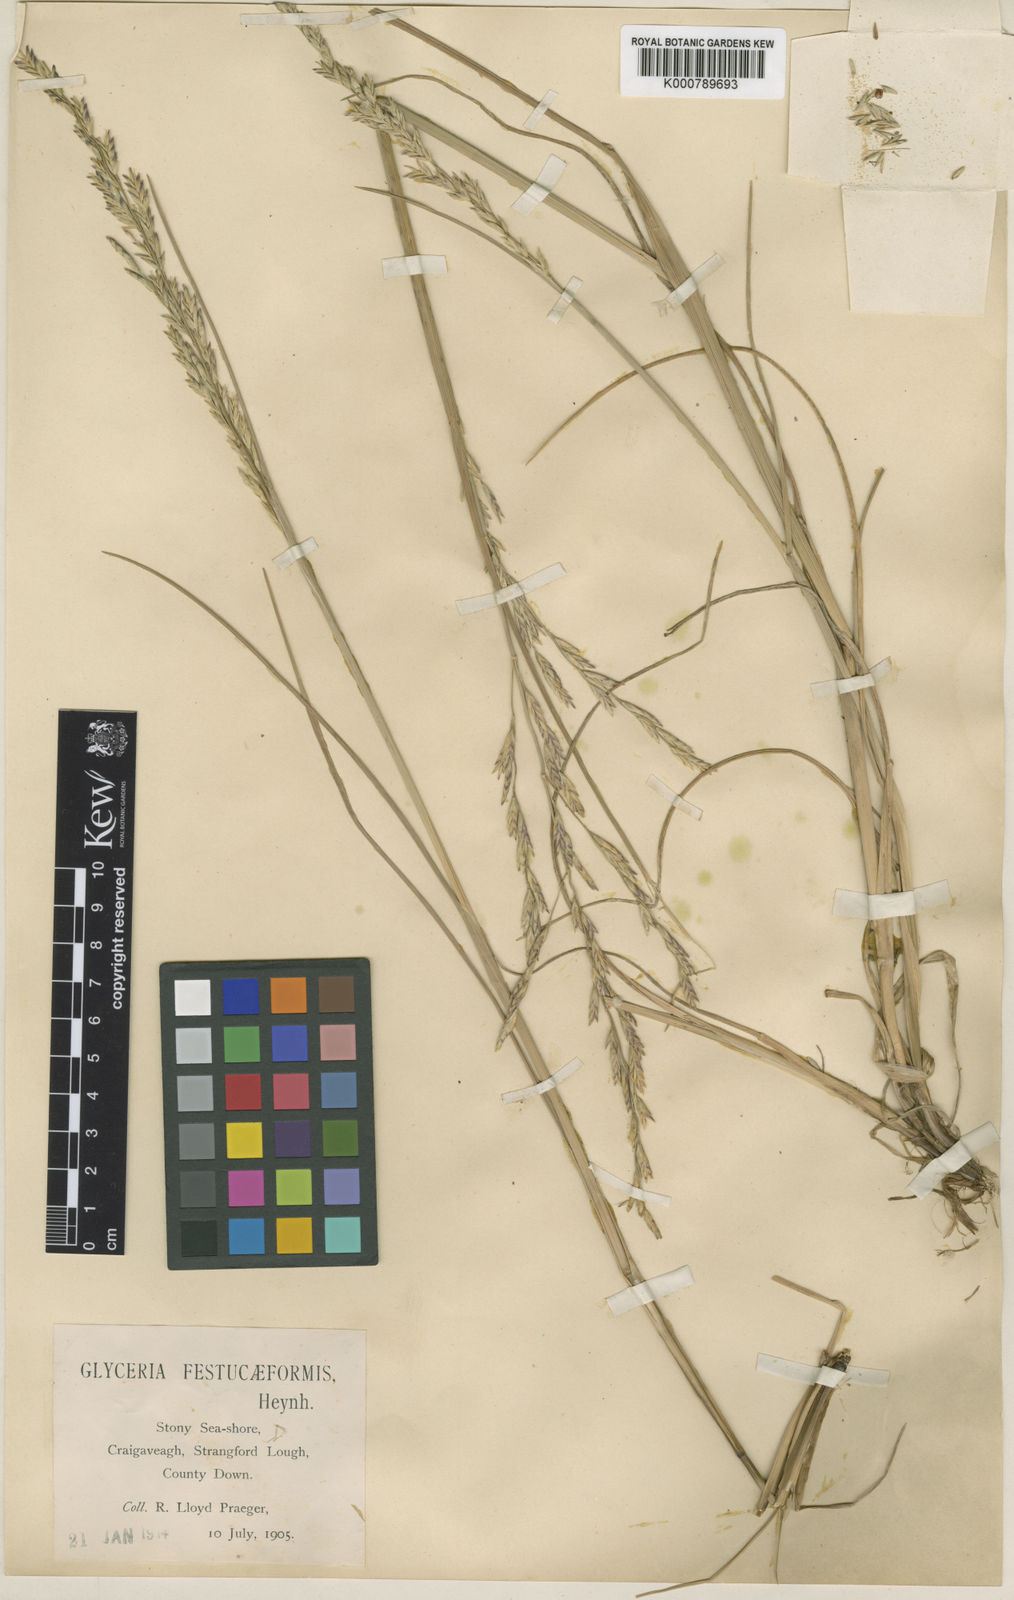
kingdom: Plantae
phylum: Tracheophyta
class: Liliopsida
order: Poales
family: Poaceae
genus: Puccinellia
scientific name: Puccinellia maritima
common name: Common saltmarsh grass
